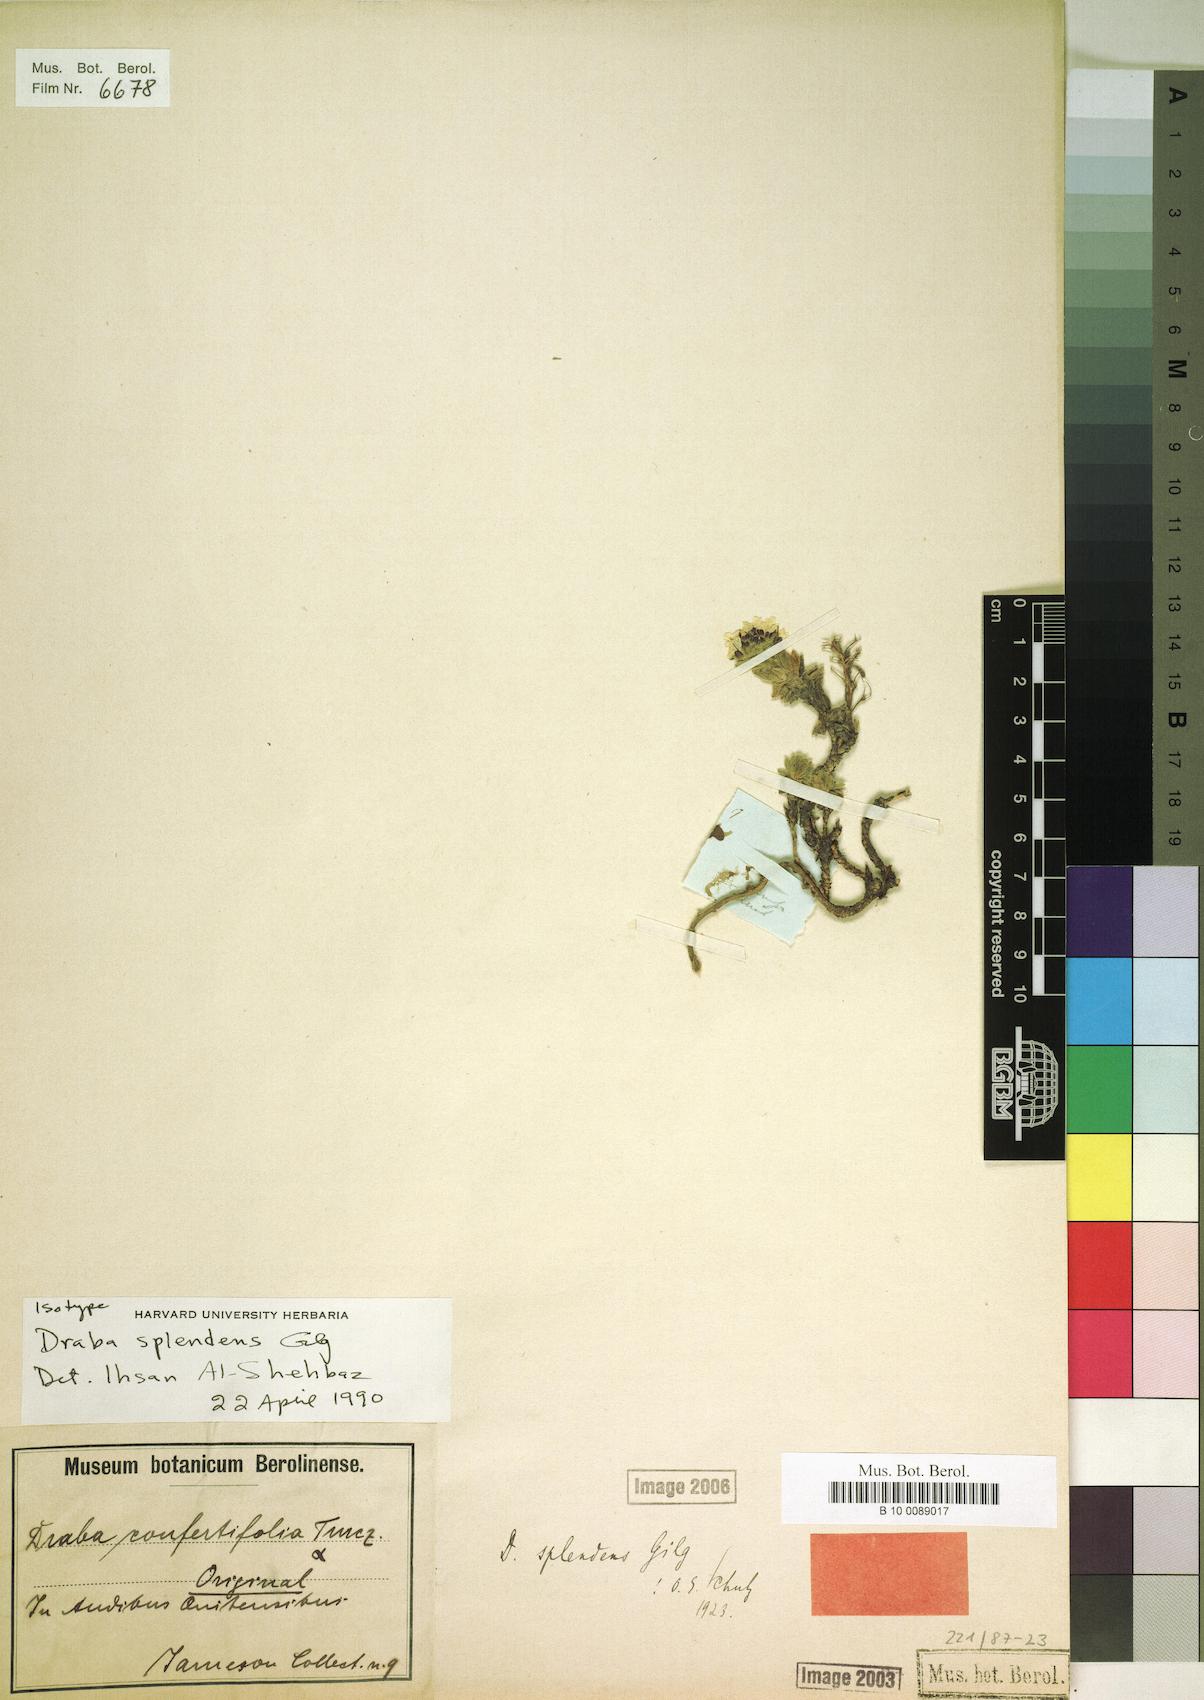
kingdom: Plantae
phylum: Tracheophyta
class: Magnoliopsida
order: Brassicales
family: Brassicaceae
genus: Draba
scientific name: Draba splendens
